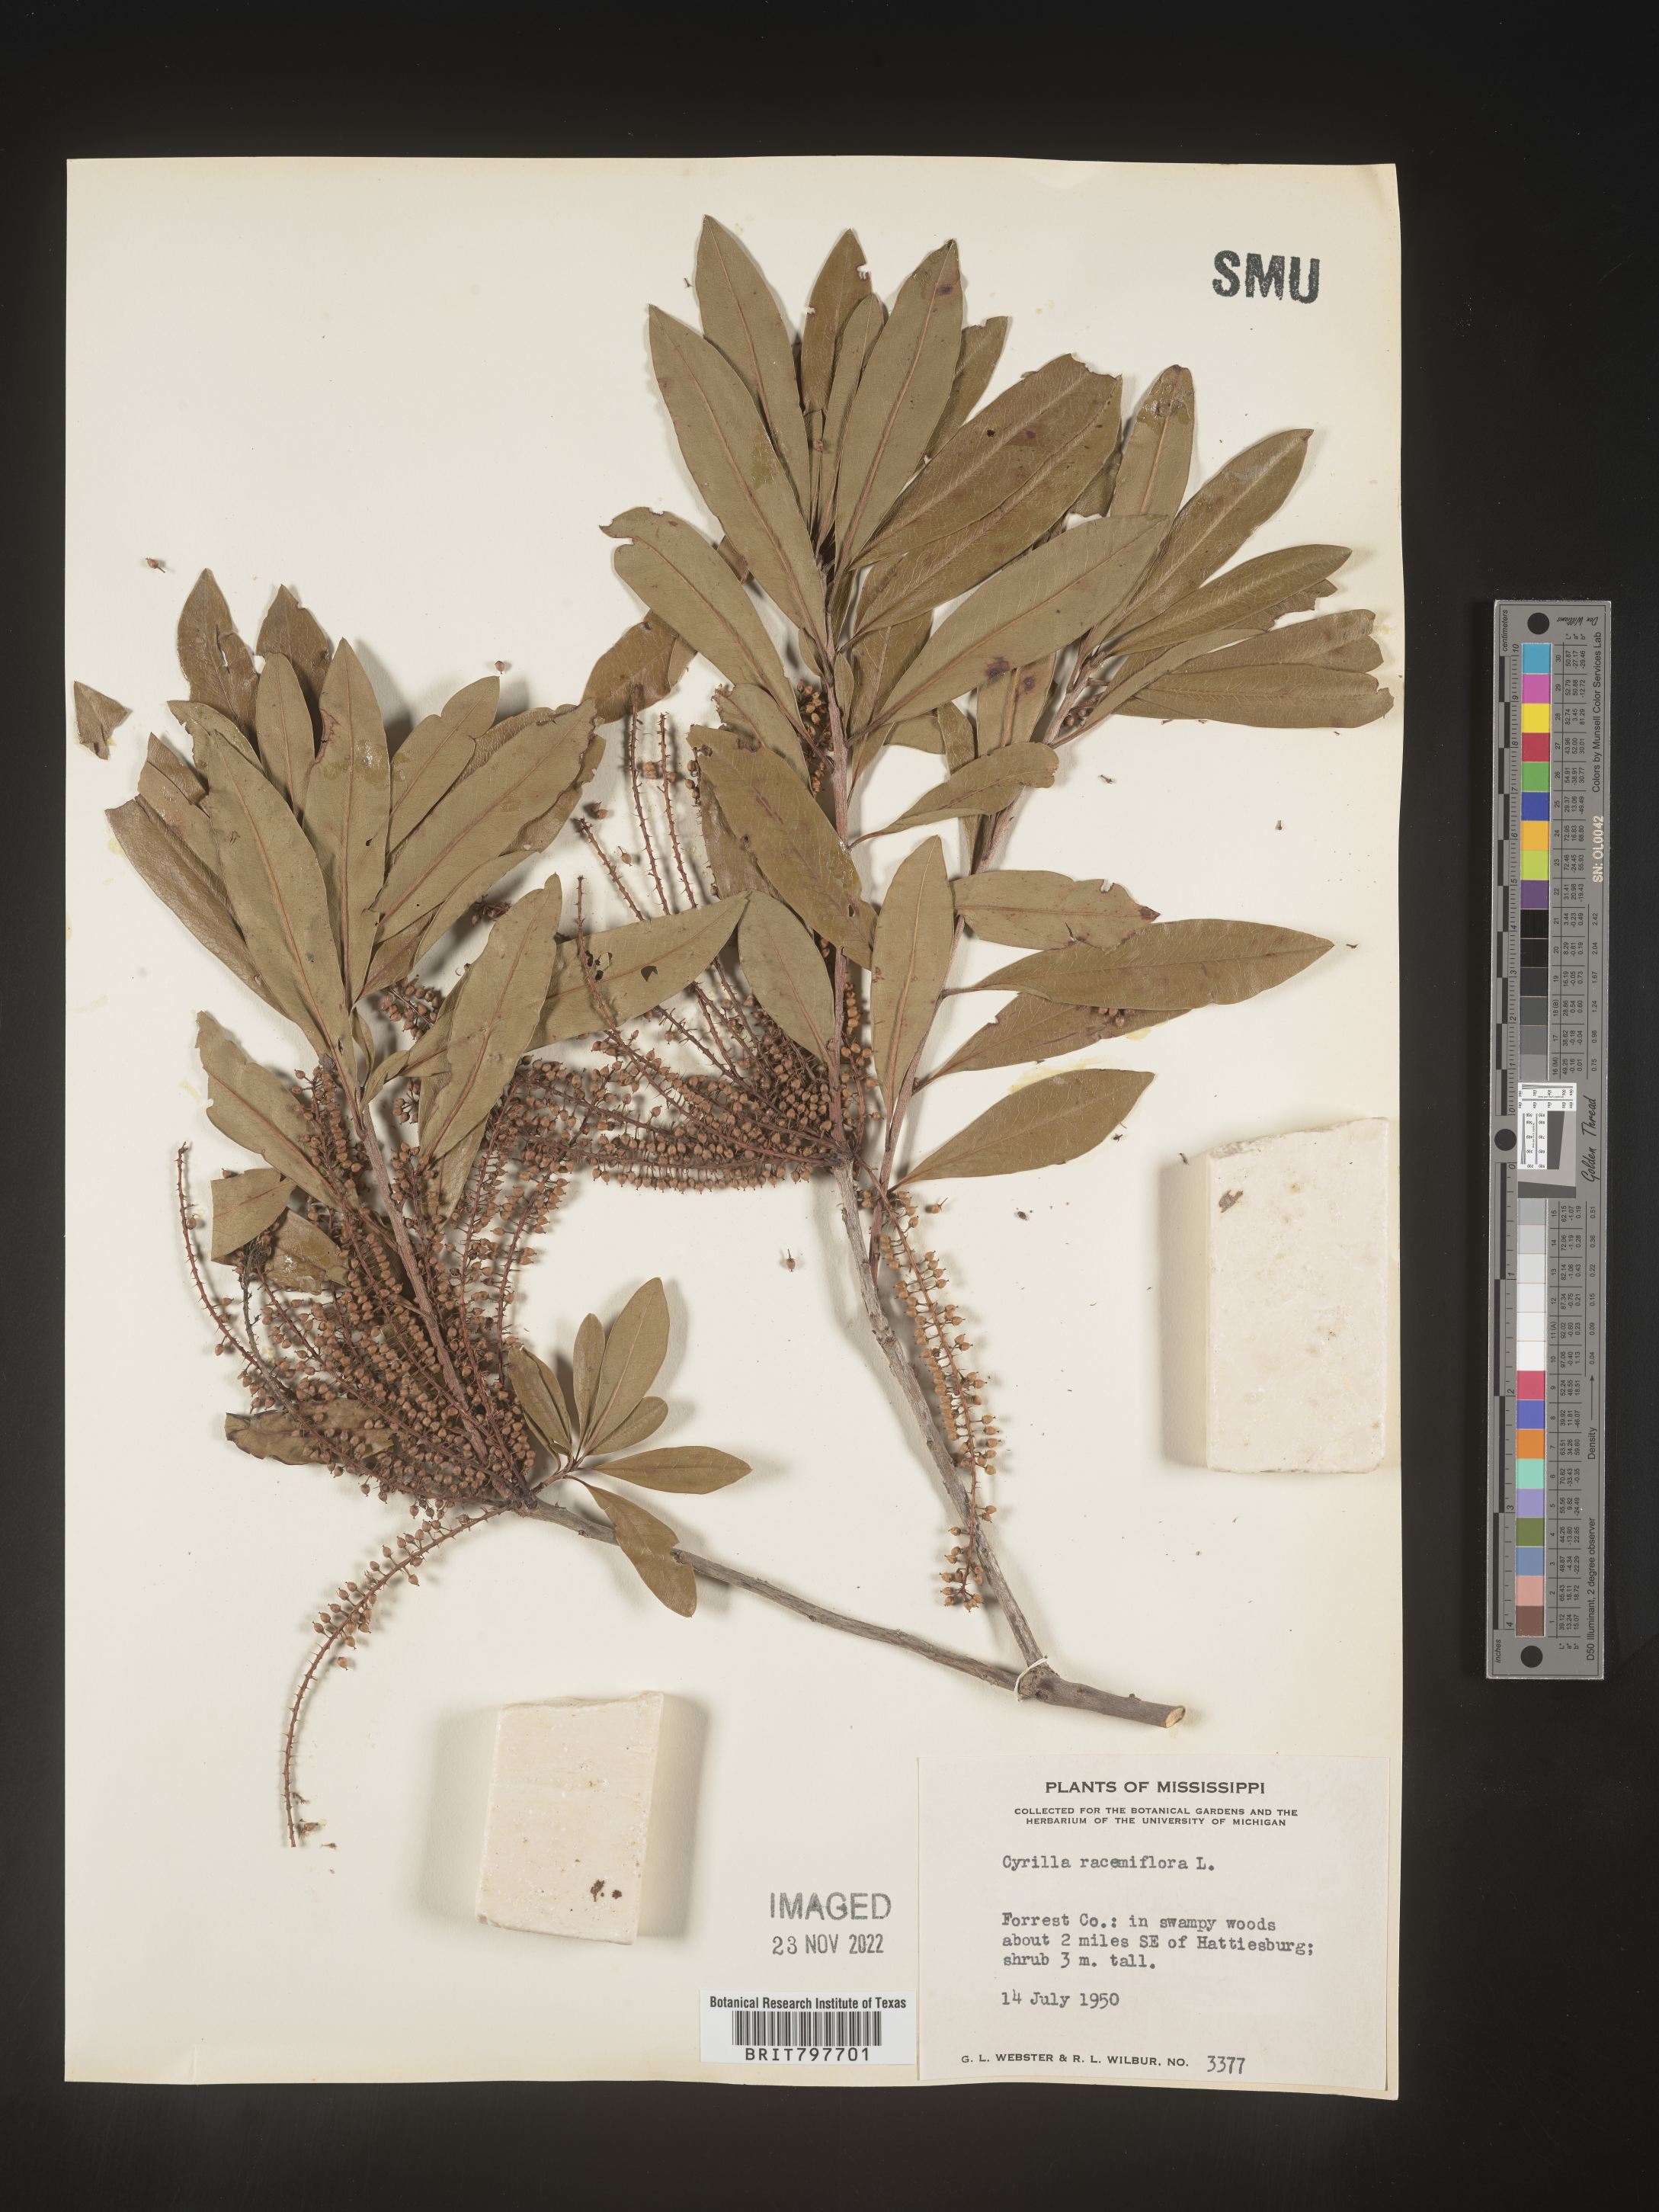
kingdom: Plantae
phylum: Tracheophyta
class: Magnoliopsida
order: Ericales
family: Cyrillaceae
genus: Cyrilla
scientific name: Cyrilla racemiflora
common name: Black titi
